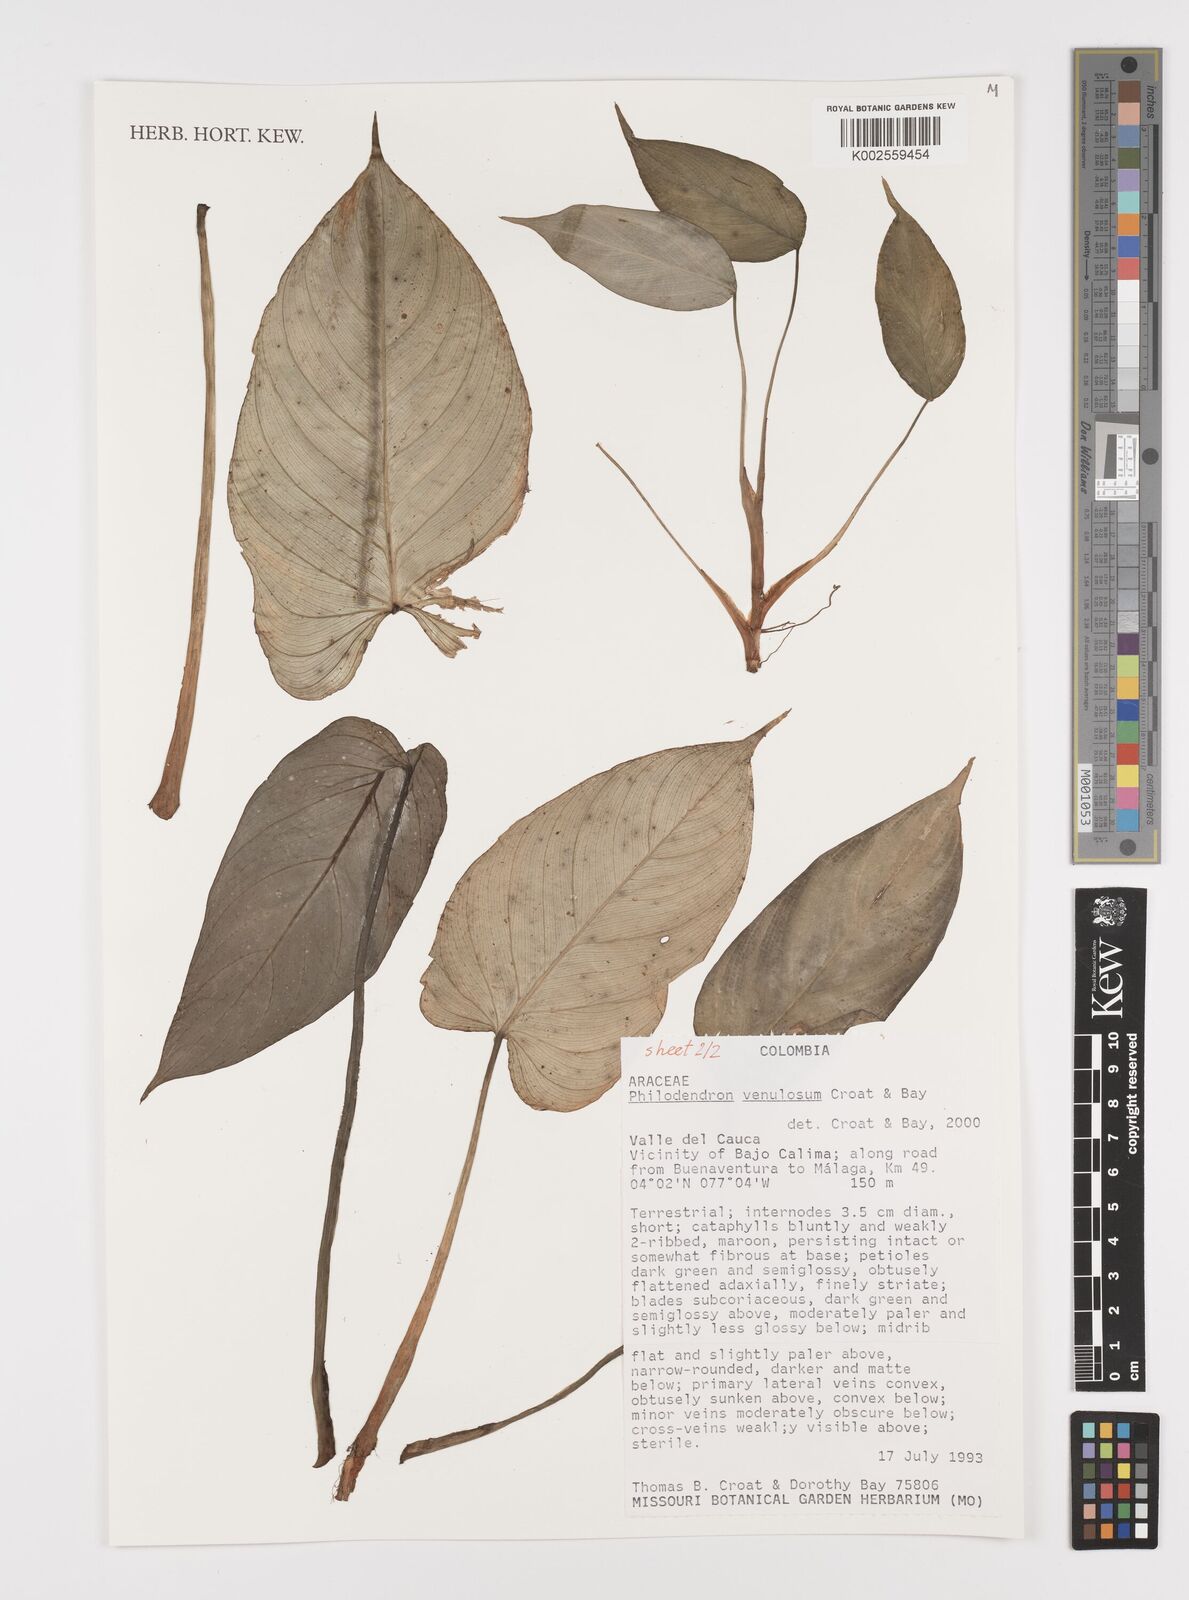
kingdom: Plantae
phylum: Tracheophyta
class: Liliopsida
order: Alismatales
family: Araceae
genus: Philodendron
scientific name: Philodendron venulosum
